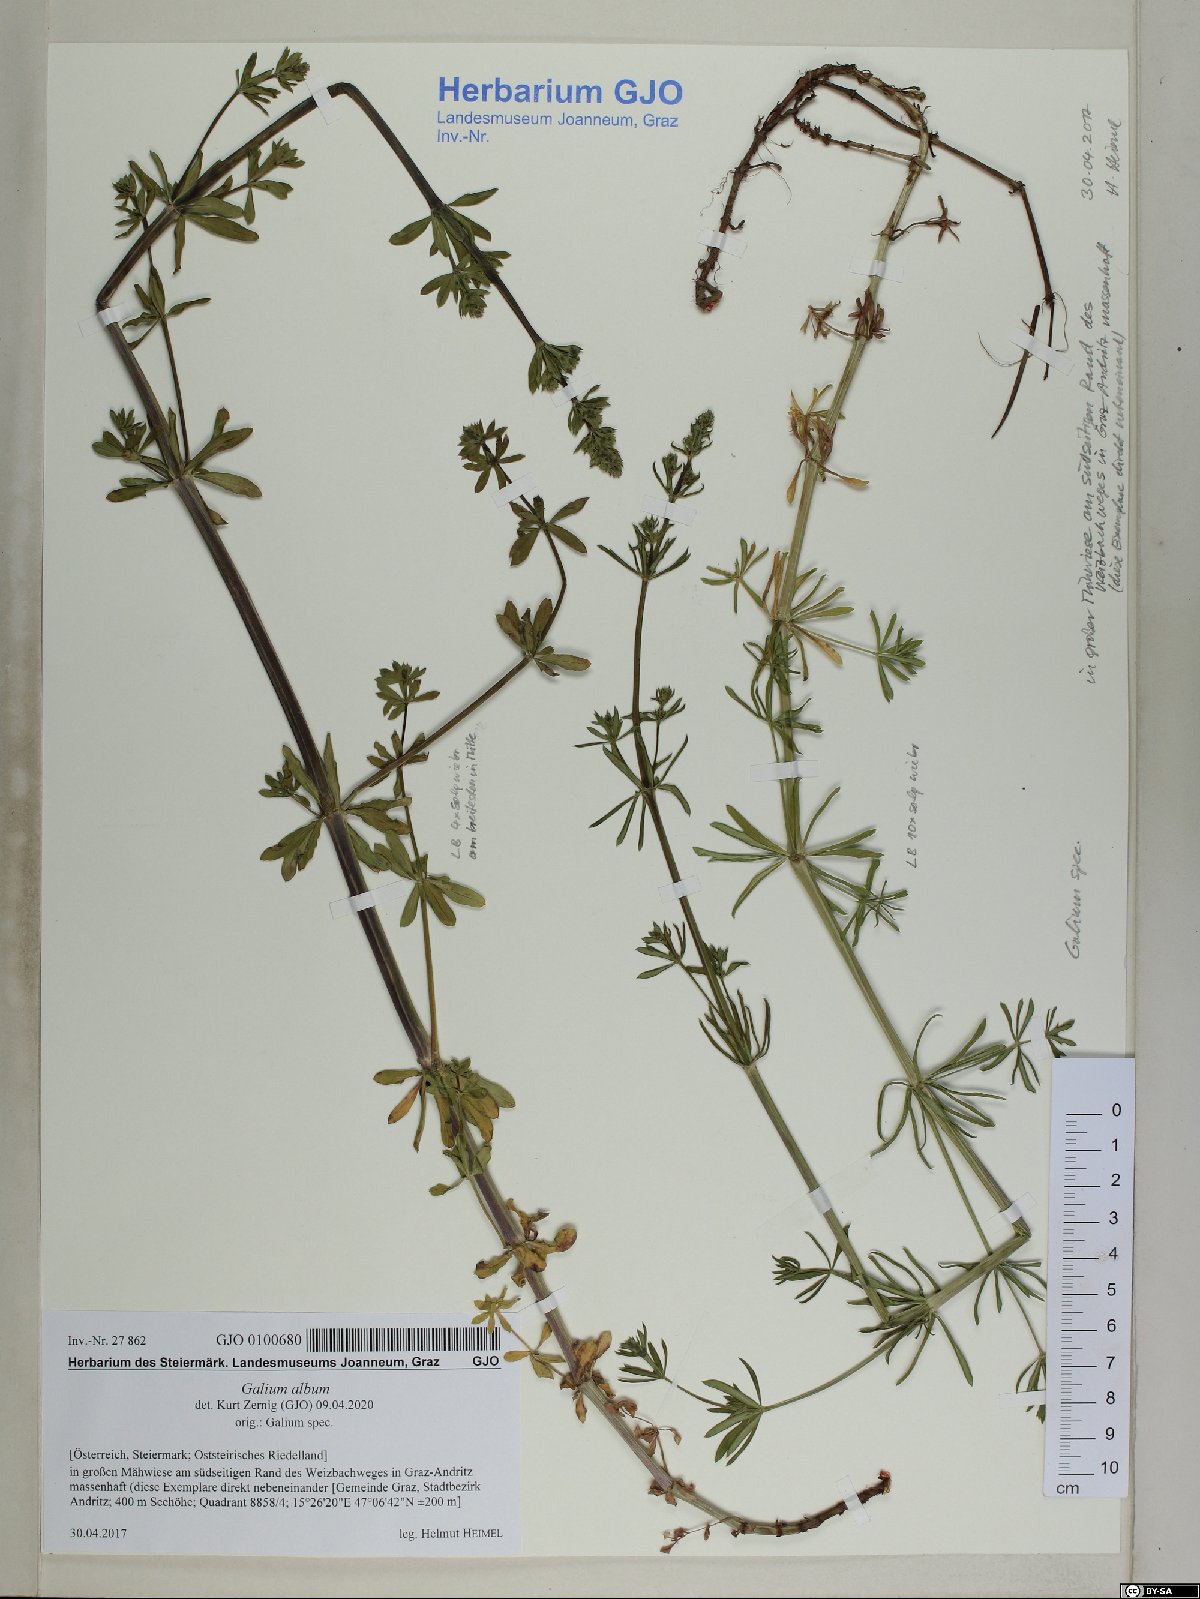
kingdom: Plantae
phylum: Tracheophyta
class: Magnoliopsida
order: Gentianales
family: Rubiaceae
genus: Galium
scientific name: Galium album
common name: White bedstraw
